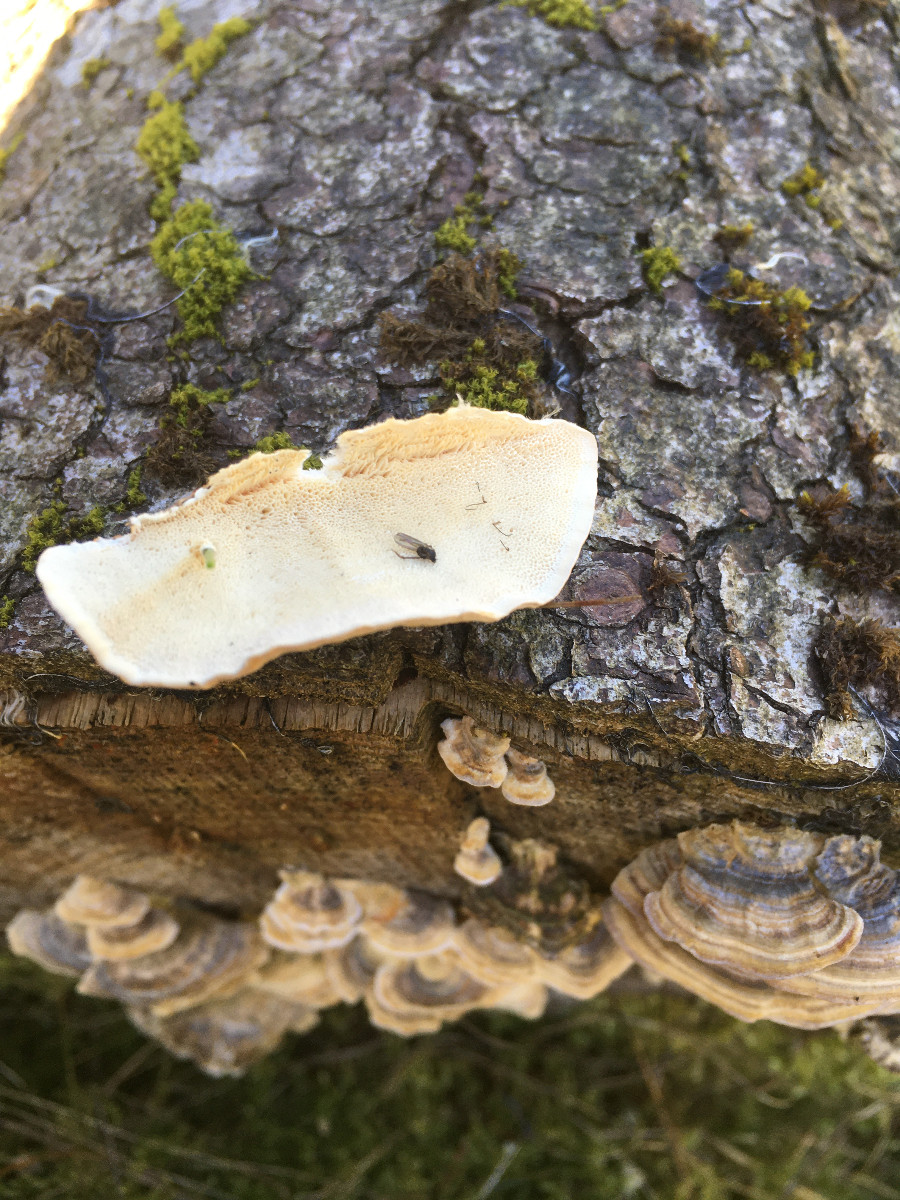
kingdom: Fungi
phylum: Basidiomycota
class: Agaricomycetes
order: Polyporales
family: Polyporaceae
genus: Trametes
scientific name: Trametes versicolor
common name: broget læderporesvamp
